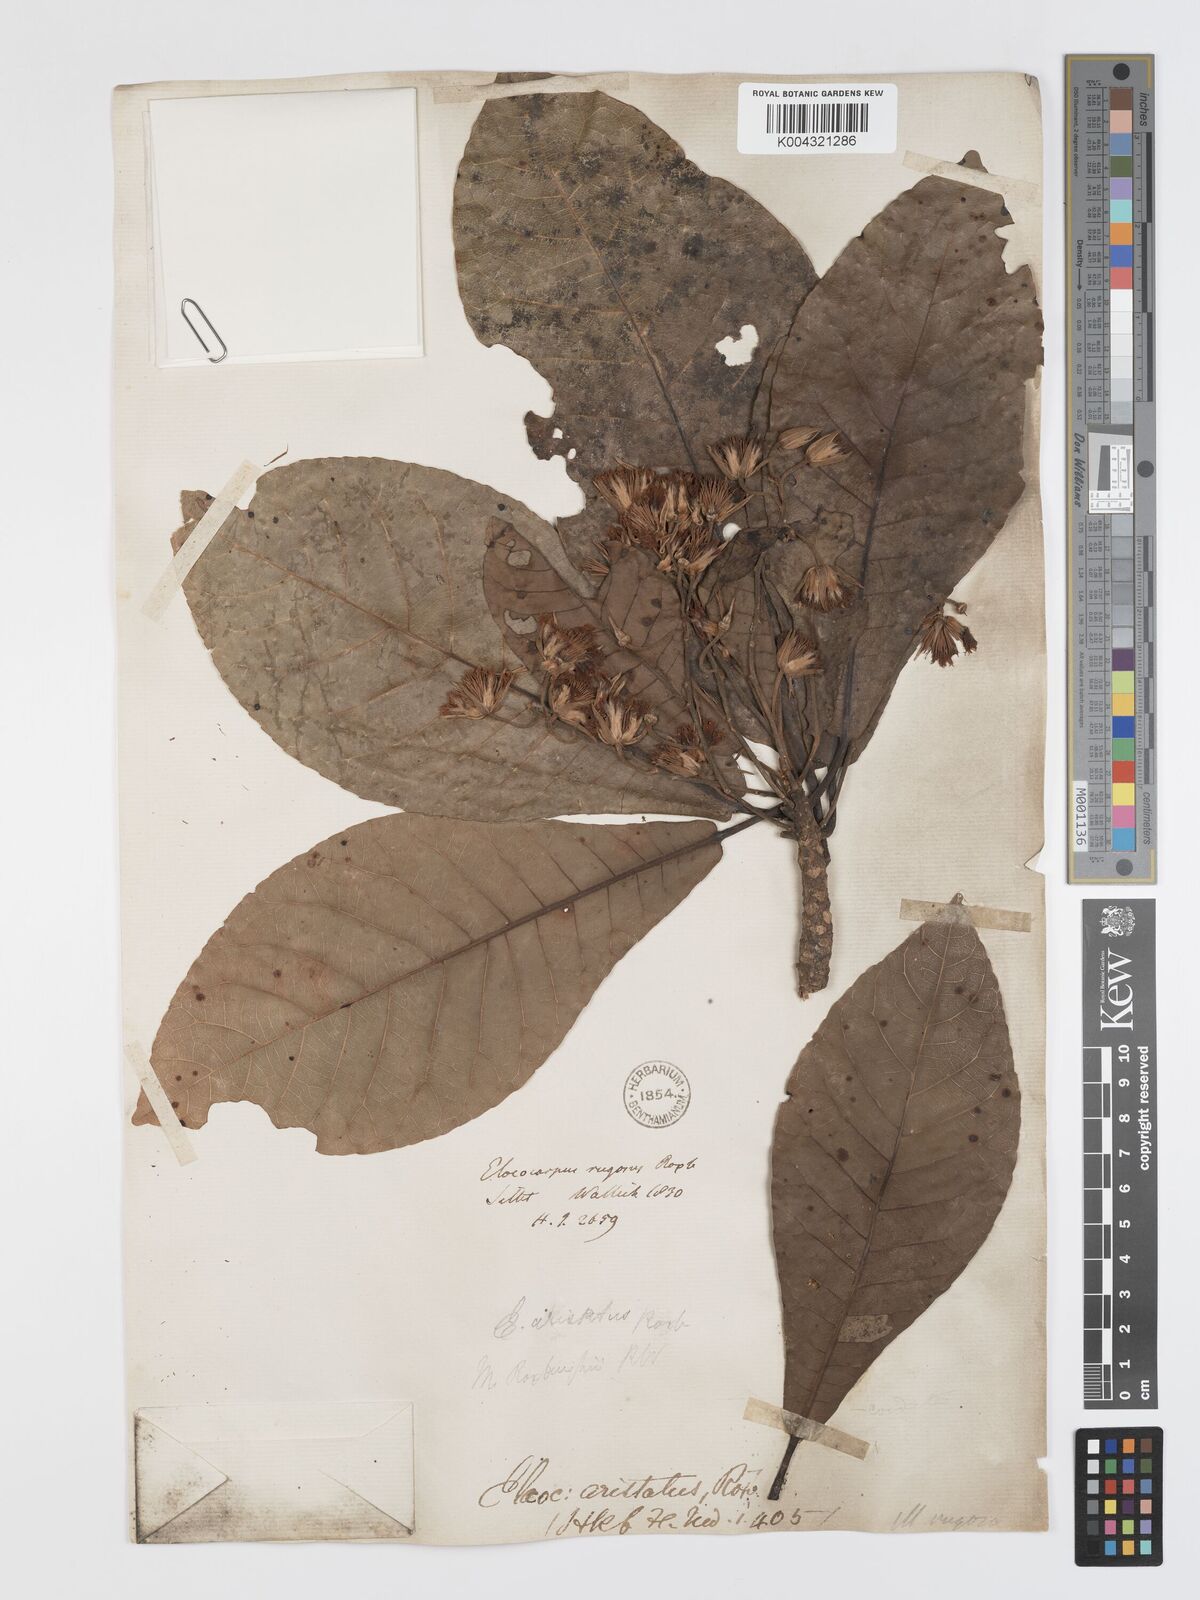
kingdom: Plantae
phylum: Tracheophyta
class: Magnoliopsida
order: Oxalidales
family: Elaeocarpaceae
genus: Elaeocarpus
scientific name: Elaeocarpus aristatus
